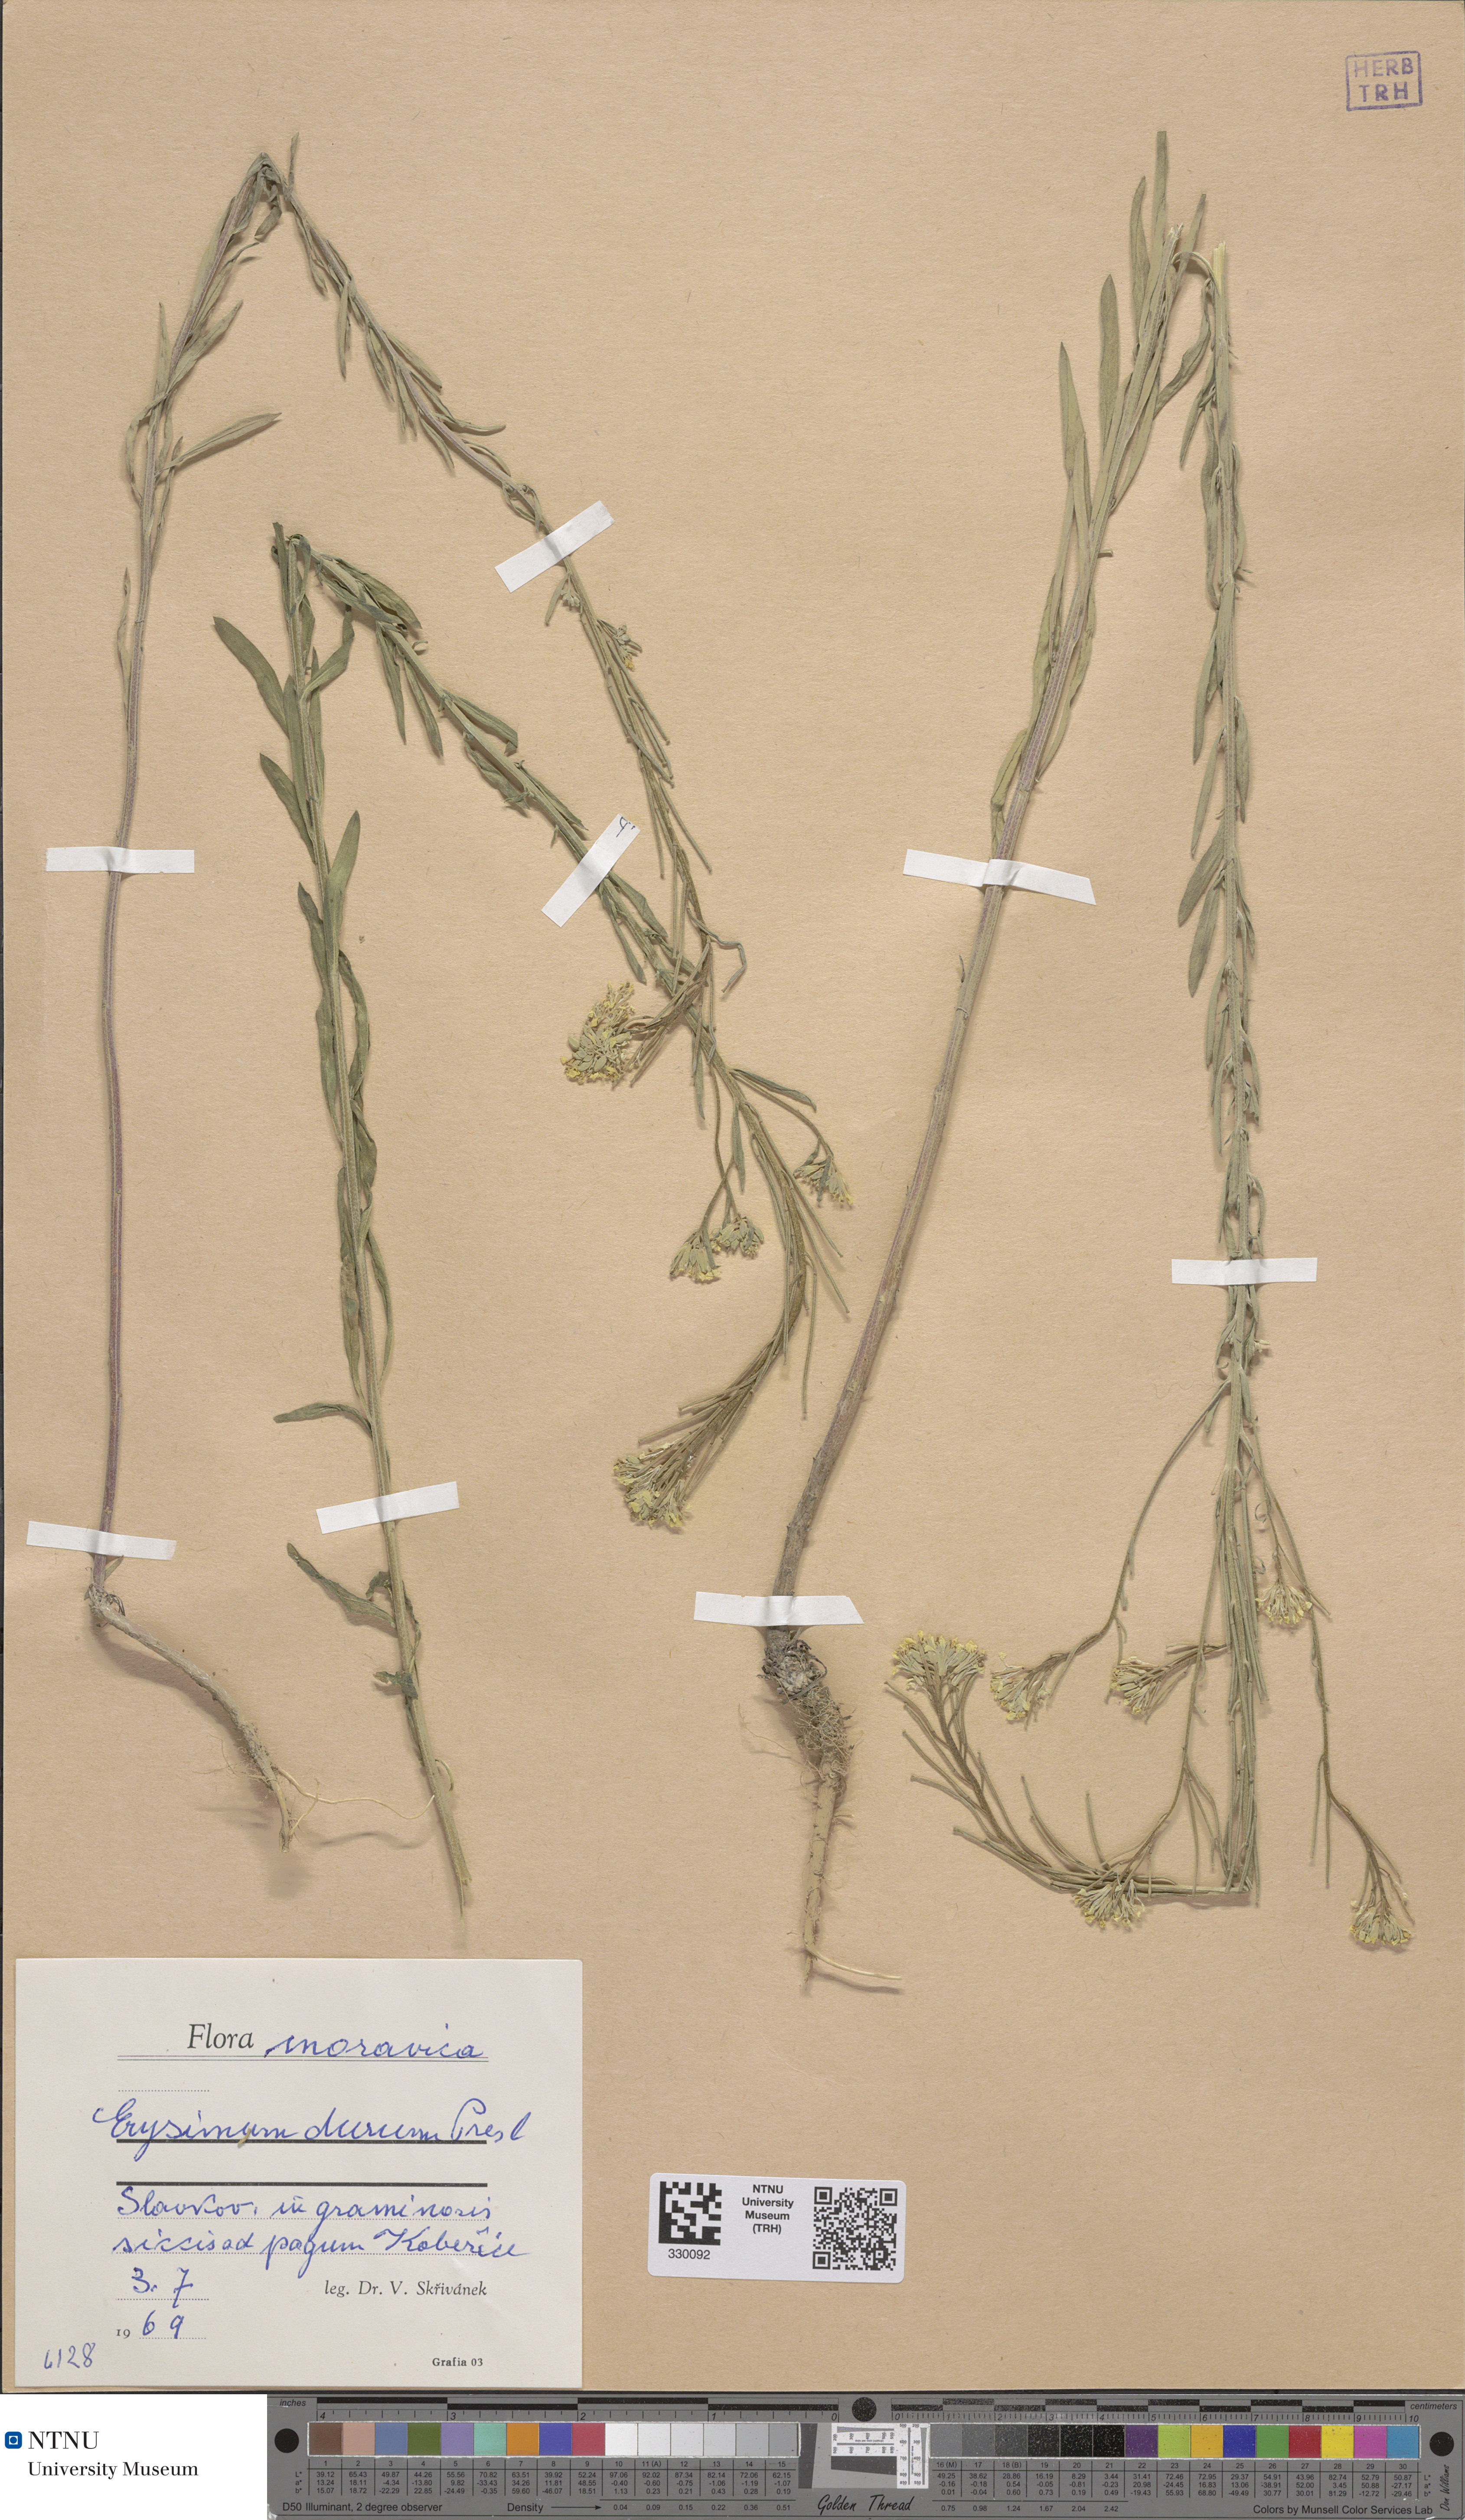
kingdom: Plantae
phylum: Tracheophyta
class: Magnoliopsida
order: Brassicales
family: Brassicaceae
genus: Erysimum
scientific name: Erysimum marschallianum
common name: Hard wallflower
